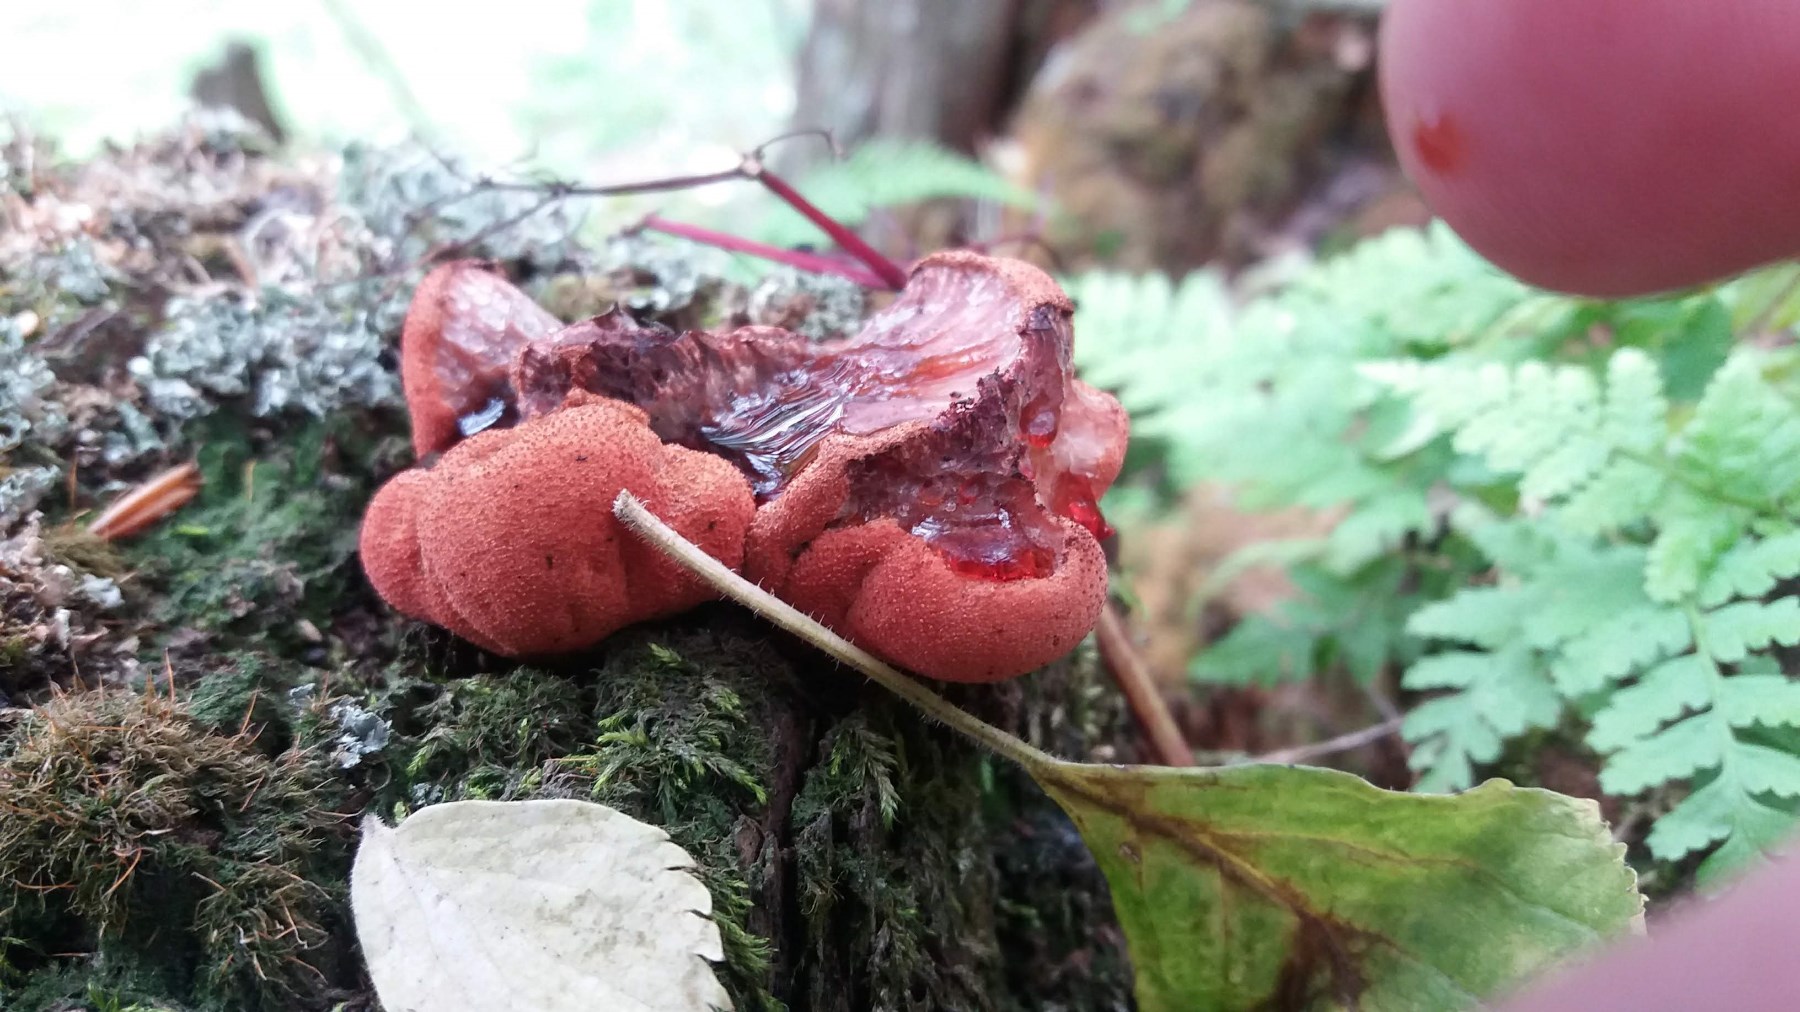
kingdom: Fungi
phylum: Basidiomycota
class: Agaricomycetes
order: Agaricales
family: Fistulinaceae
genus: Fistulina
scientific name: Fistulina hepatica
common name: oksetunge
